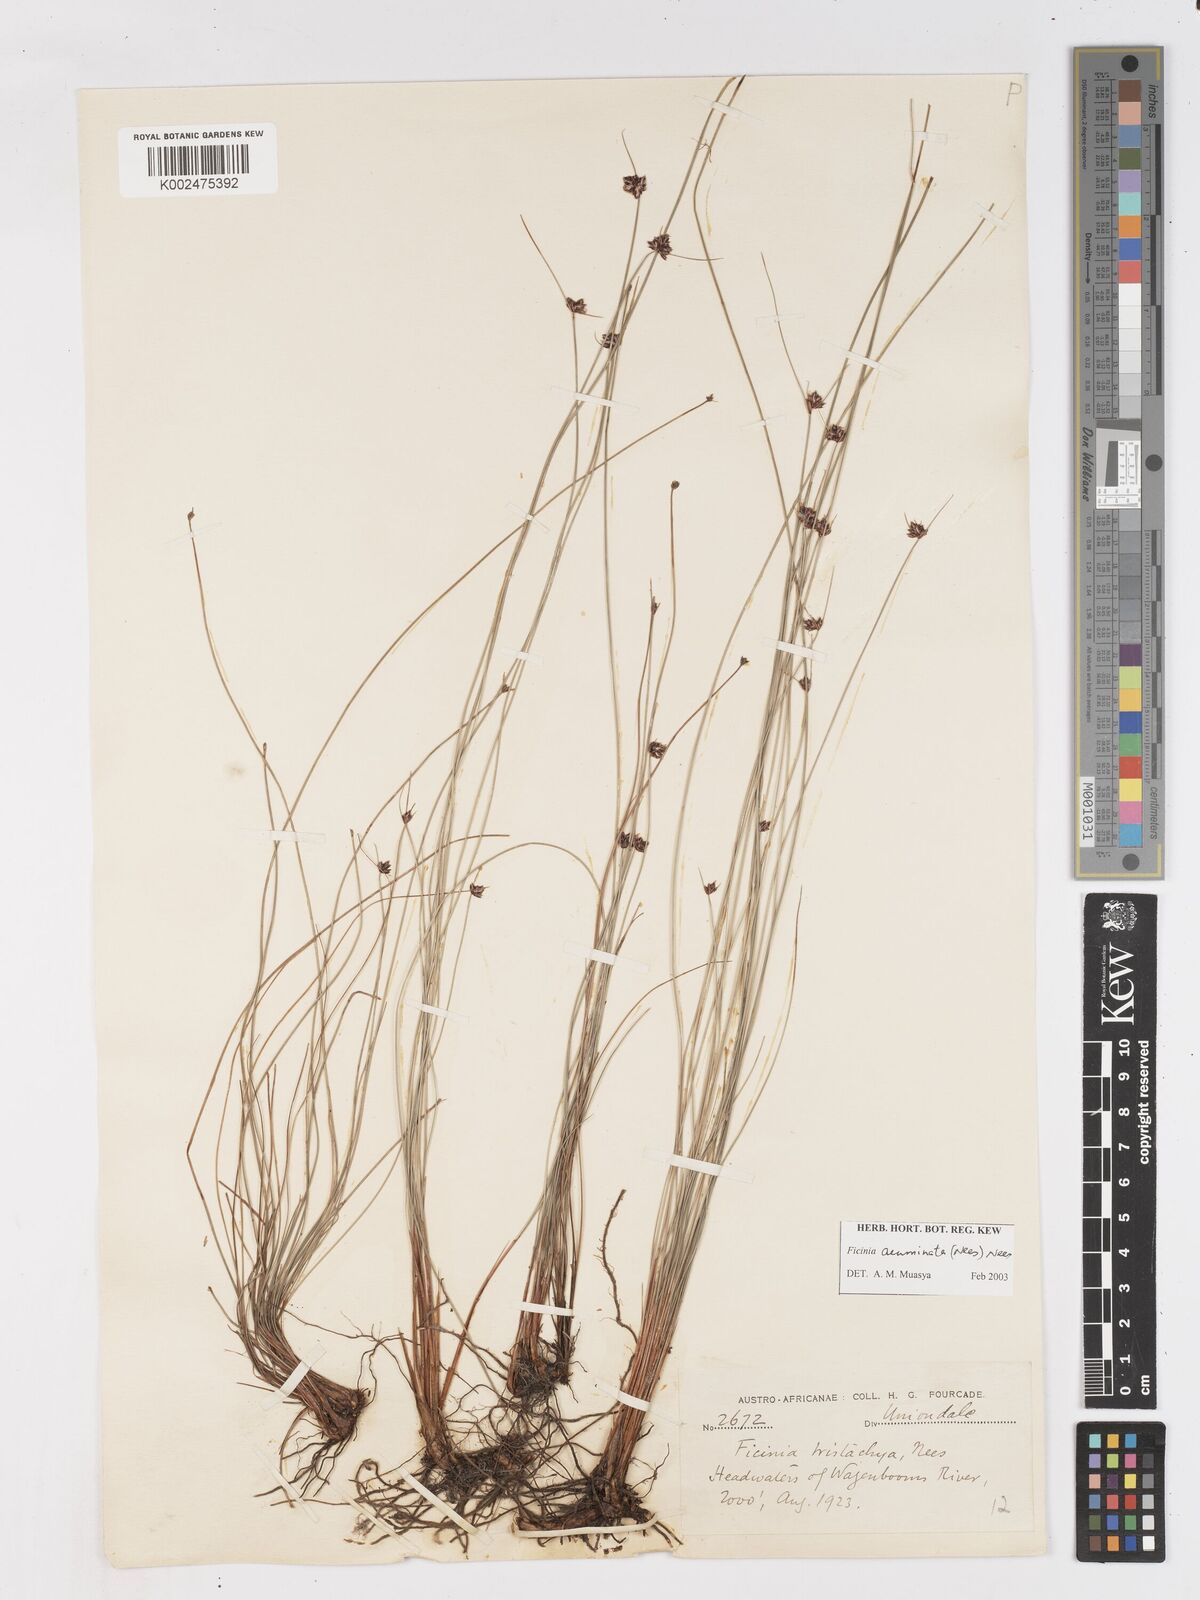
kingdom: Plantae
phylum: Tracheophyta
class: Liliopsida
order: Poales
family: Cyperaceae
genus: Ficinia
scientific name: Ficinia acuminata
